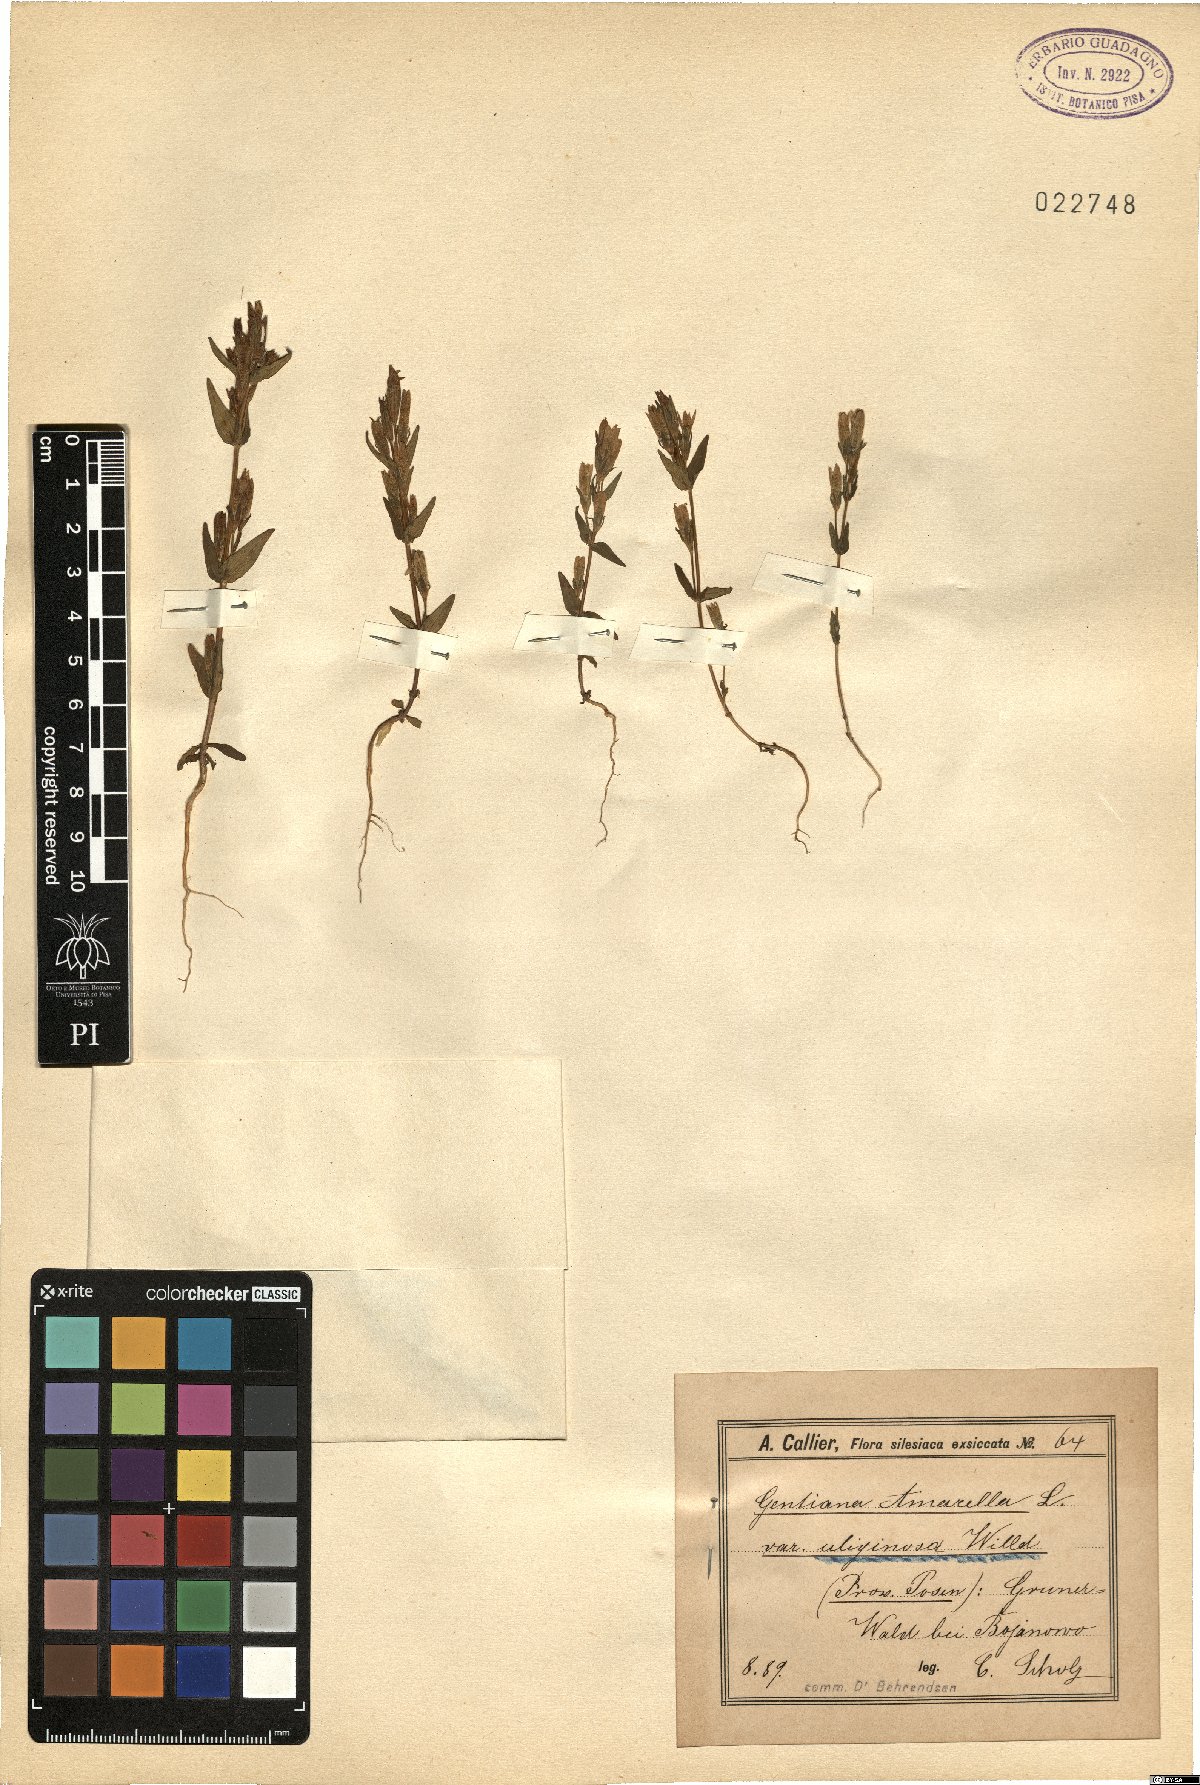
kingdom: Plantae
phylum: Tracheophyta
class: Magnoliopsida
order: Gentianales
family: Gentianaceae
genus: Gentianella
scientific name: Gentianella amarella
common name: Autumn gentian
